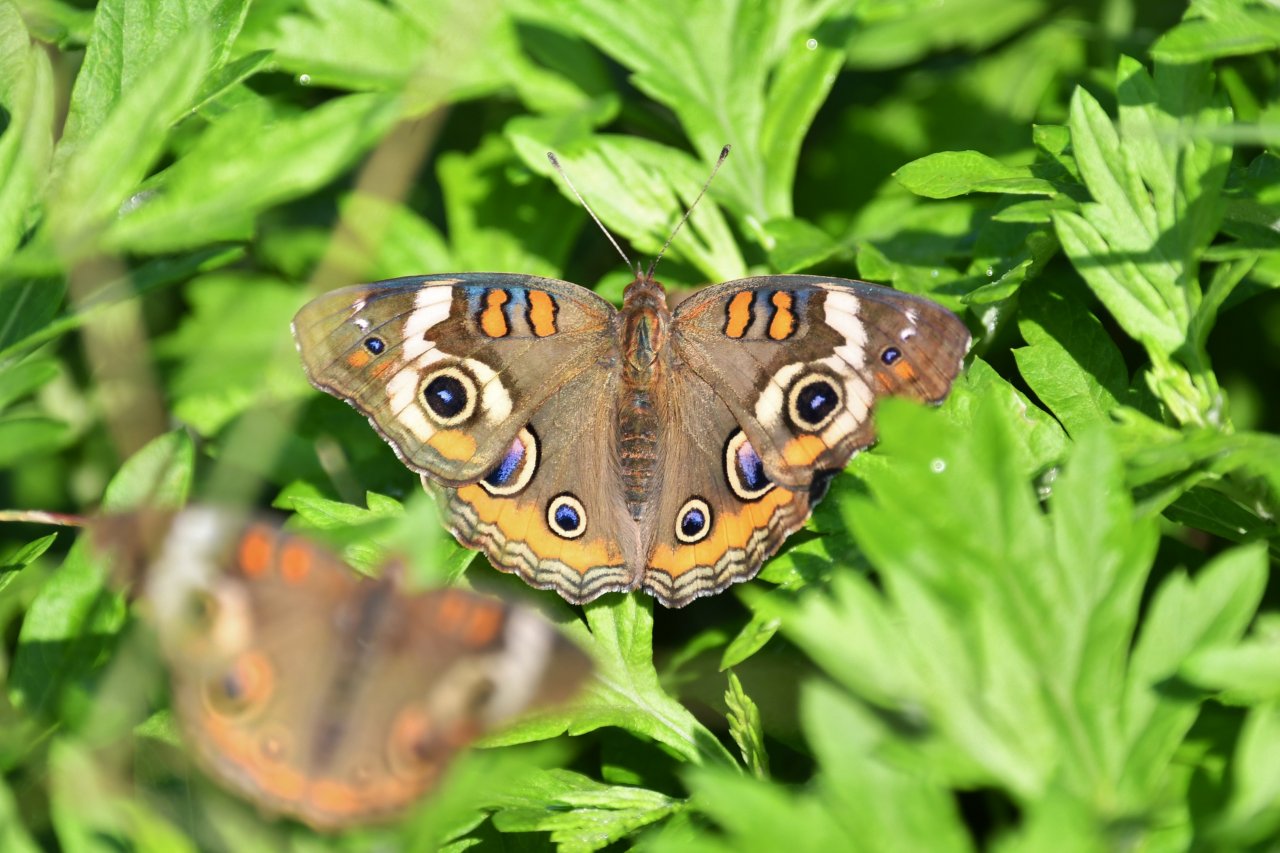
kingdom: Animalia
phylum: Arthropoda
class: Insecta
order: Lepidoptera
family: Nymphalidae
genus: Junonia
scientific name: Junonia coenia
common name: Common Buckeye
